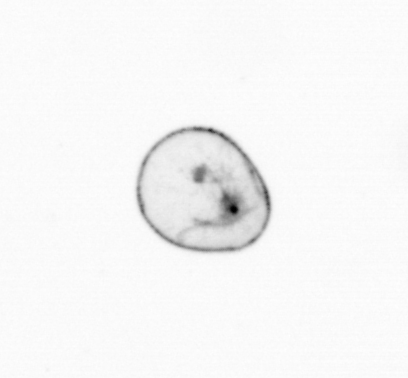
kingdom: Chromista
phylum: Myzozoa
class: Dinophyceae
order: Noctilucales
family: Noctilucaceae
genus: Noctiluca
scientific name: Noctiluca scintillans
